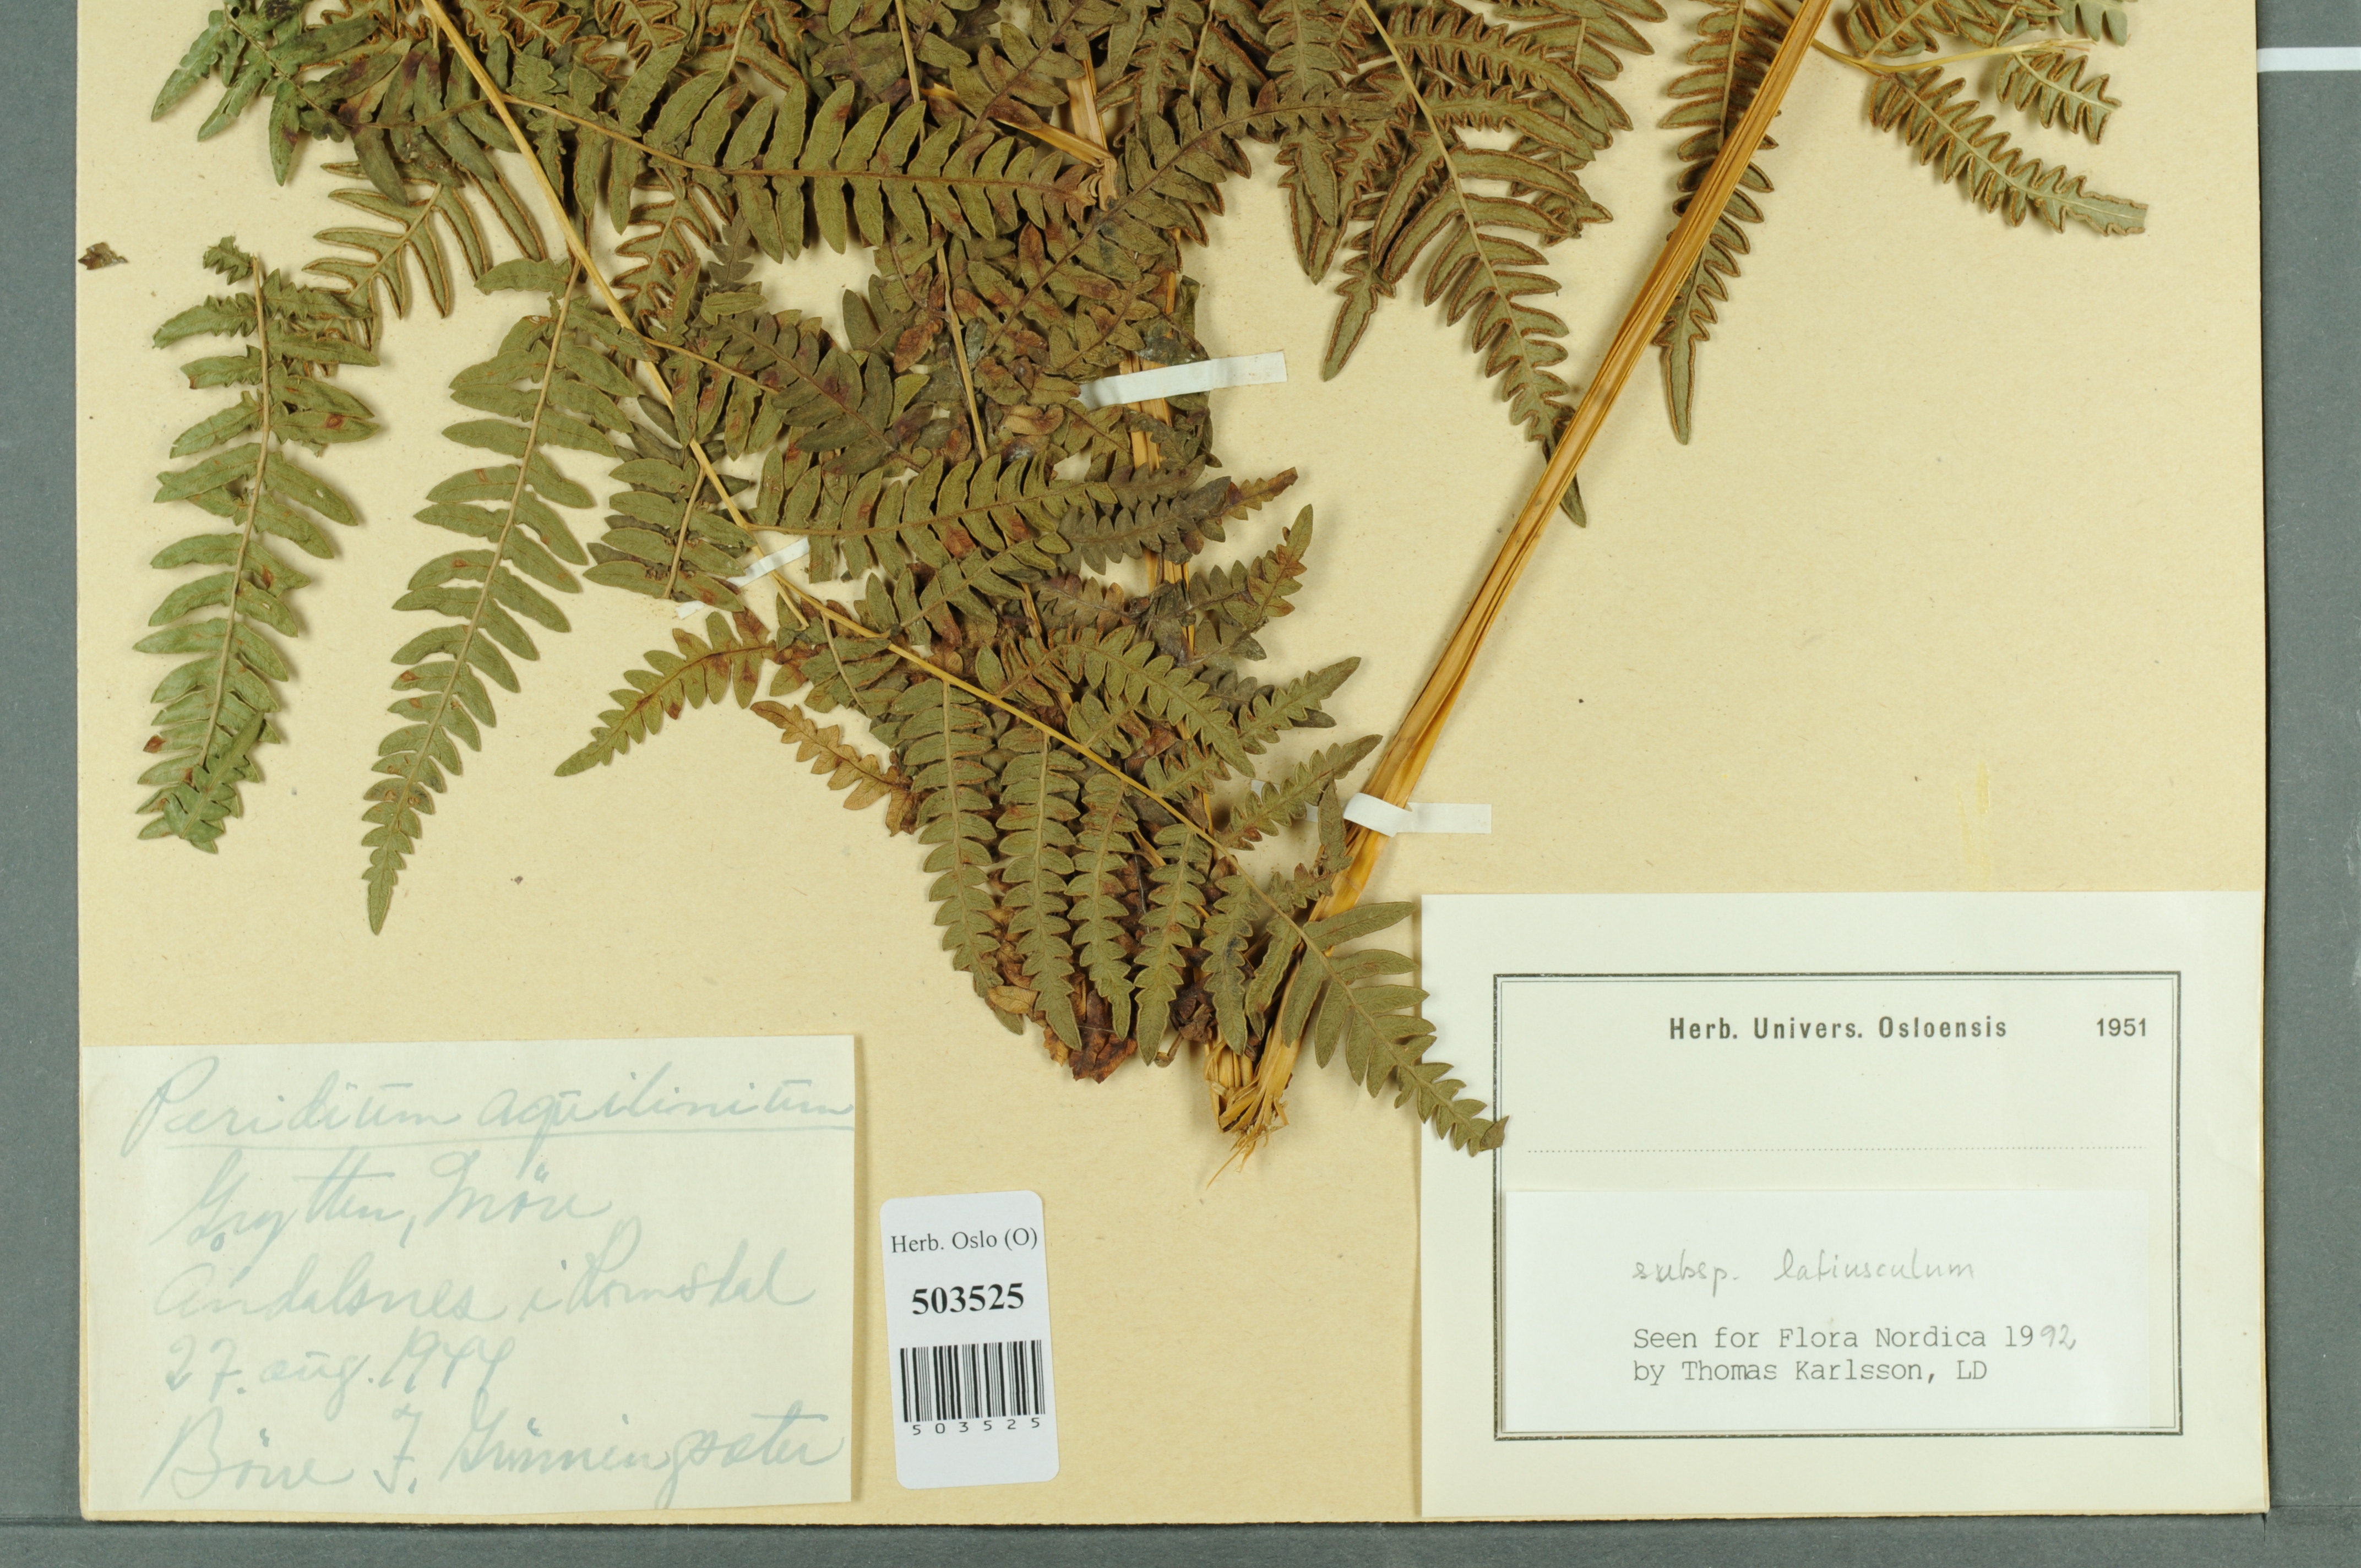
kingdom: Plantae
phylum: Tracheophyta
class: Polypodiopsida
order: Polypodiales
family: Dennstaedtiaceae
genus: Pteridium
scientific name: Pteridium aquilinum
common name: Bracken
